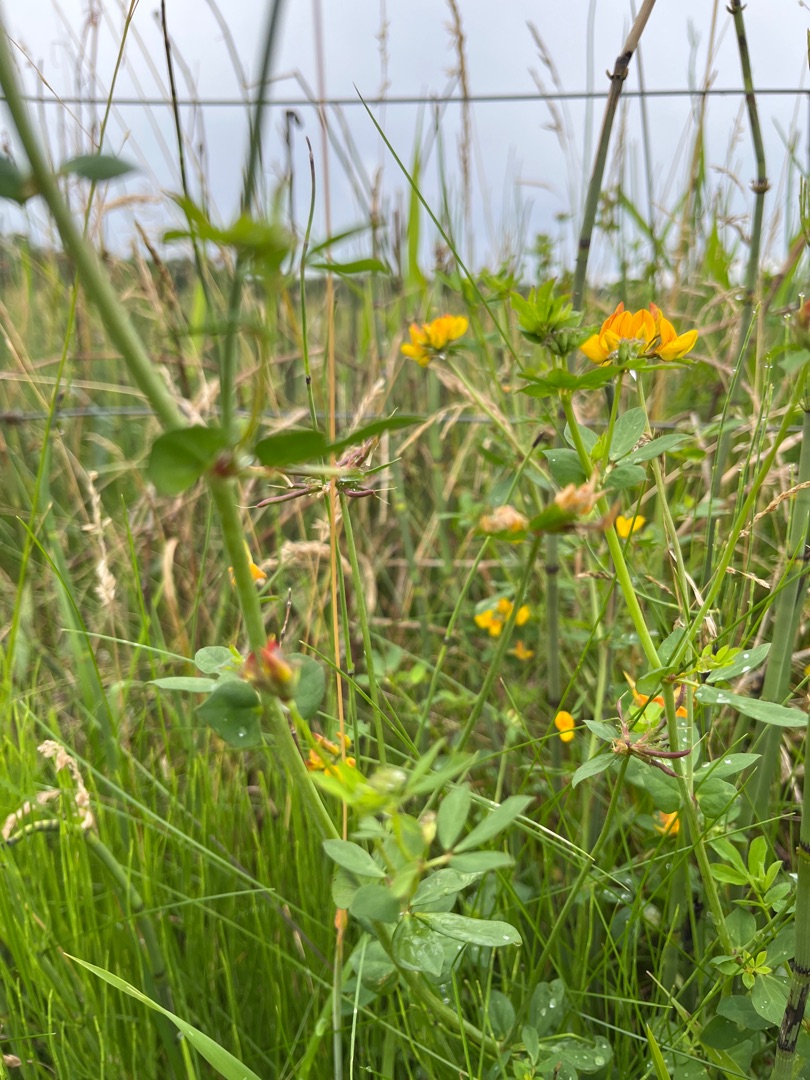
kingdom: Plantae
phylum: Tracheophyta
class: Magnoliopsida
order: Fabales
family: Fabaceae
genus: Lotus
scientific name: Lotus pedunculatus
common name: Sump-kællingetand
